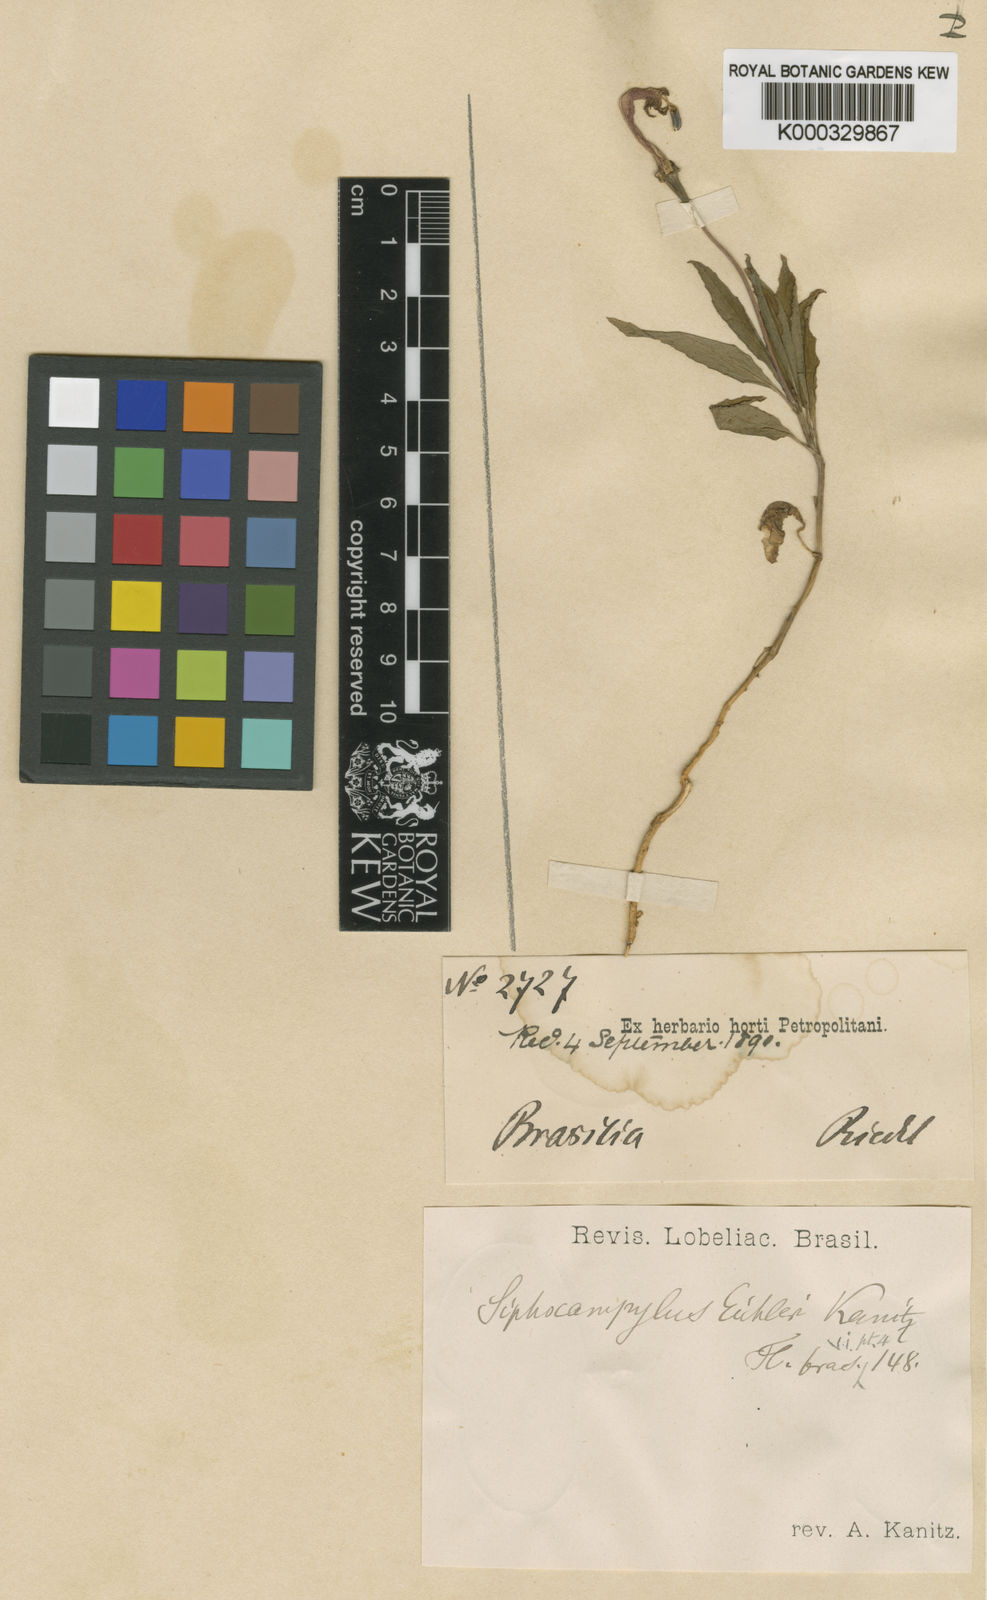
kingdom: Plantae
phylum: Tracheophyta
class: Magnoliopsida
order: Asterales
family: Campanulaceae
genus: Siphocampylus
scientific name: Siphocampylus eichleri
